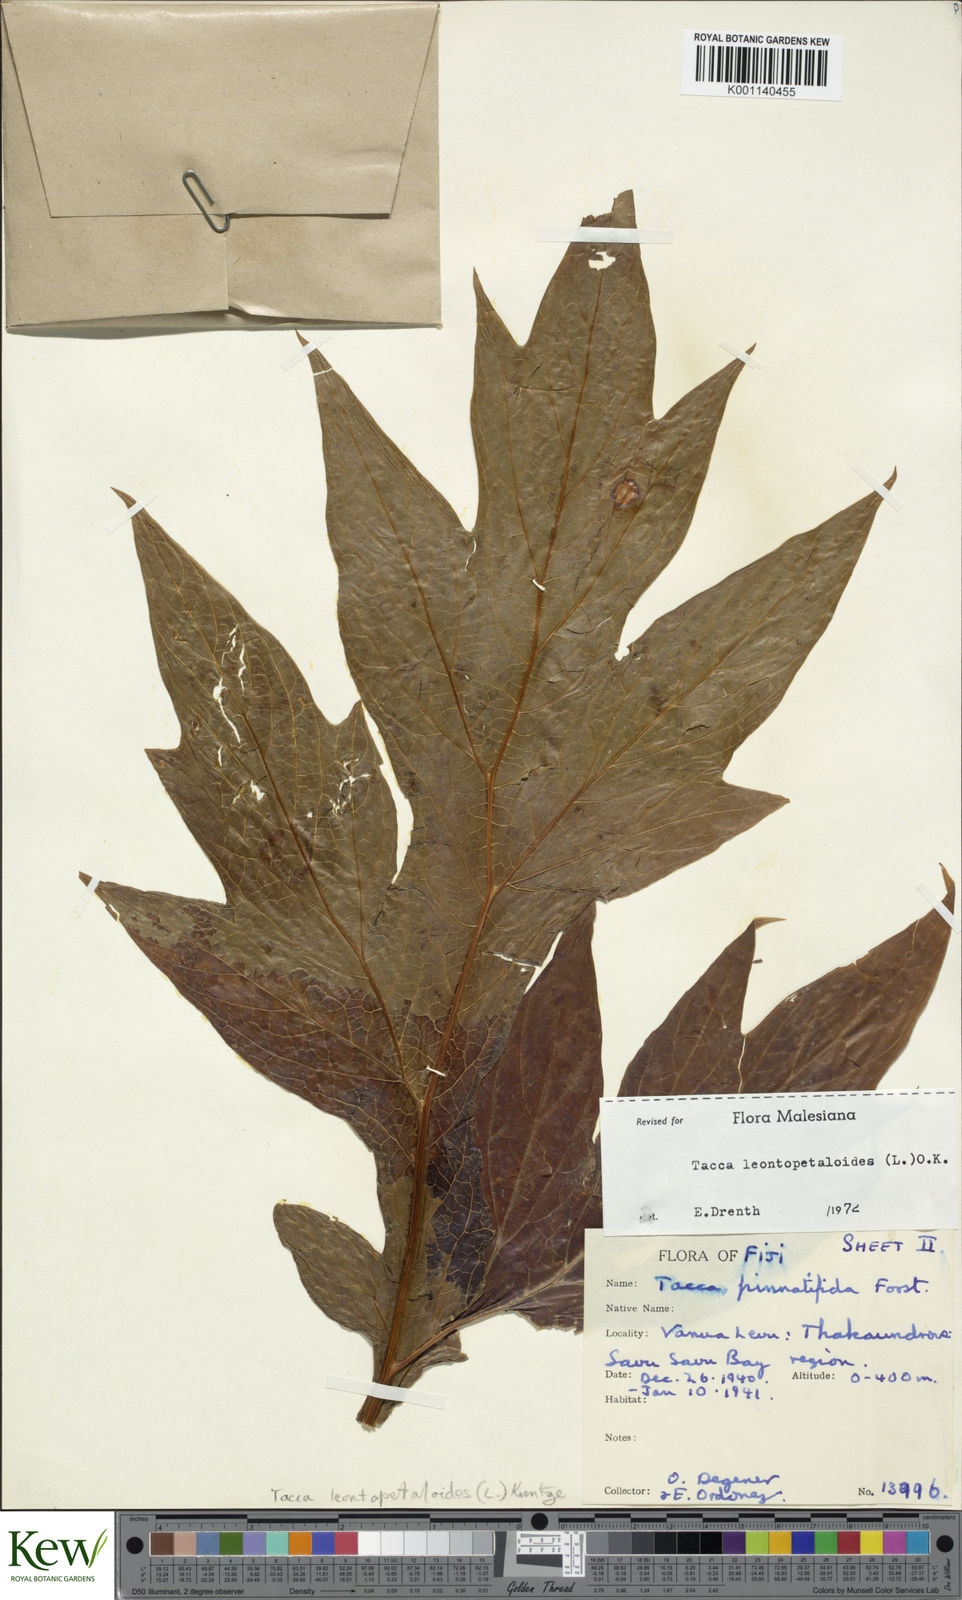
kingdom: Plantae
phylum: Tracheophyta
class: Liliopsida
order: Dioscoreales
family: Dioscoreaceae
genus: Tacca
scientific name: Tacca leontopetaloides
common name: Arrowroot
